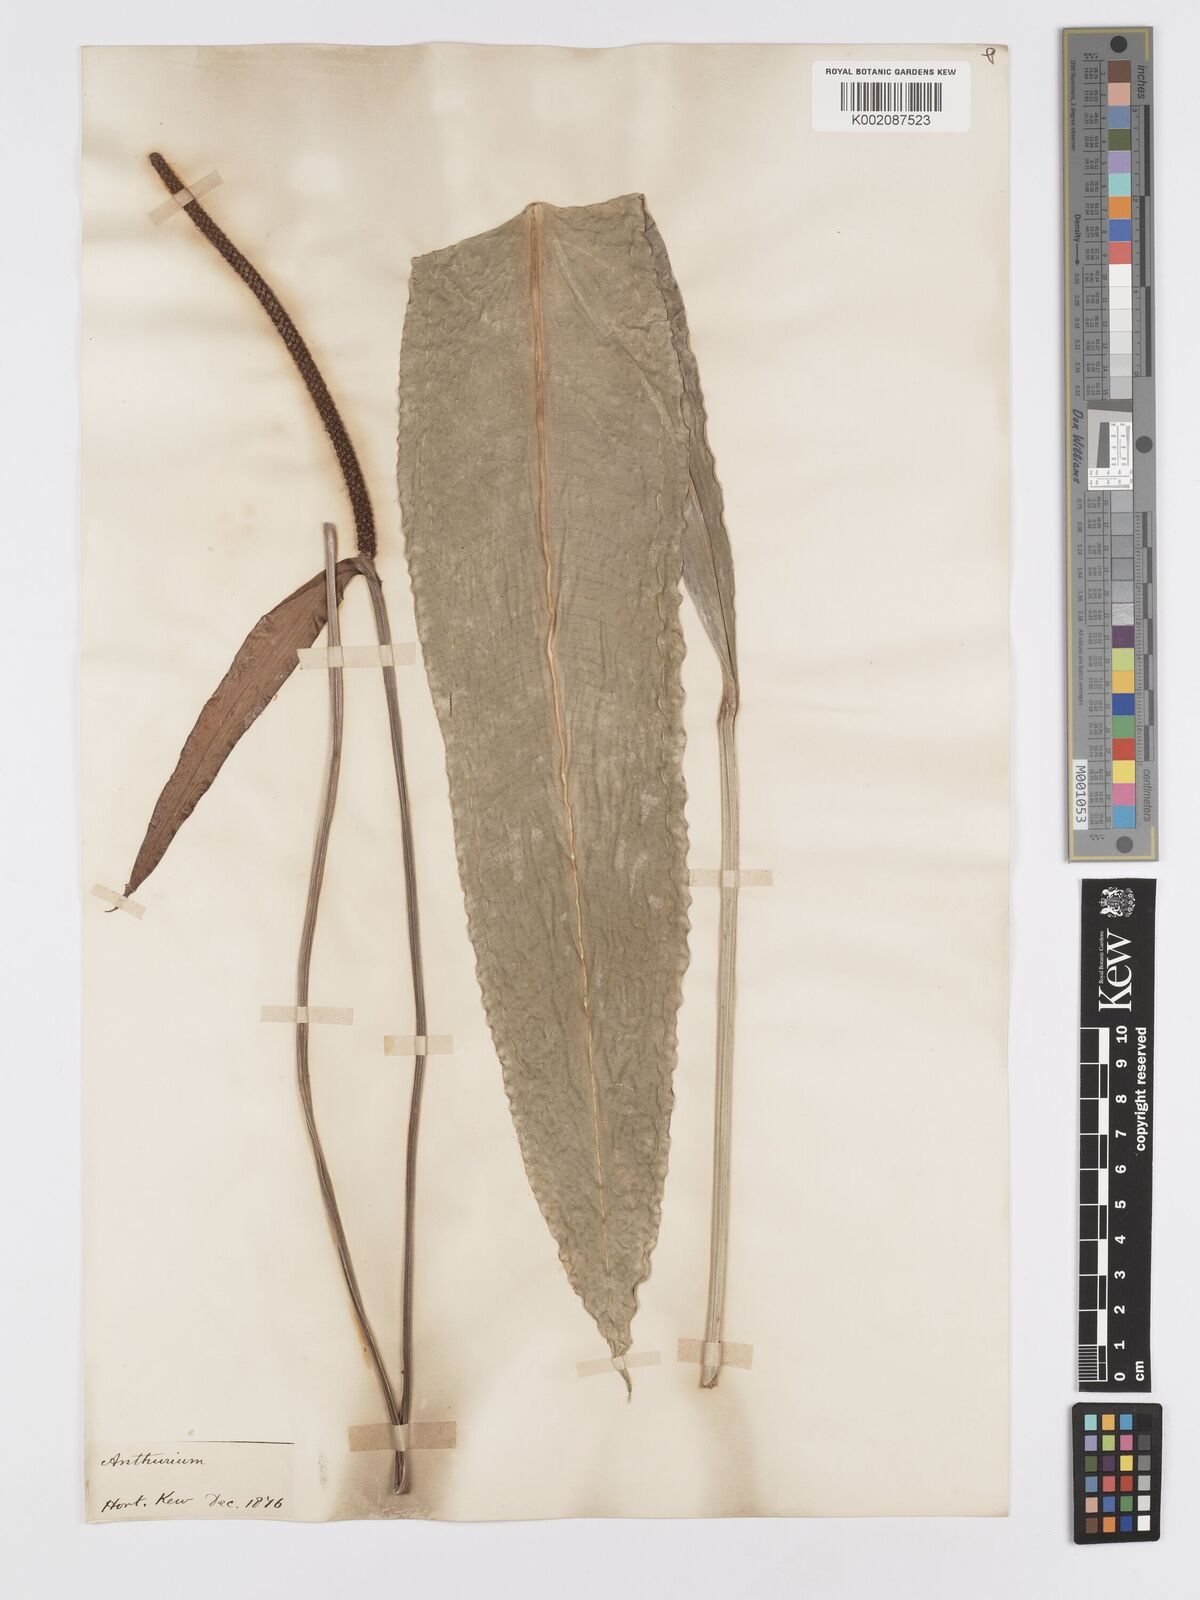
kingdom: Plantae
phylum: Tracheophyta
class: Liliopsida
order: Alismatales
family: Araceae
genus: Anthurium
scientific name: Anthurium intermedium
